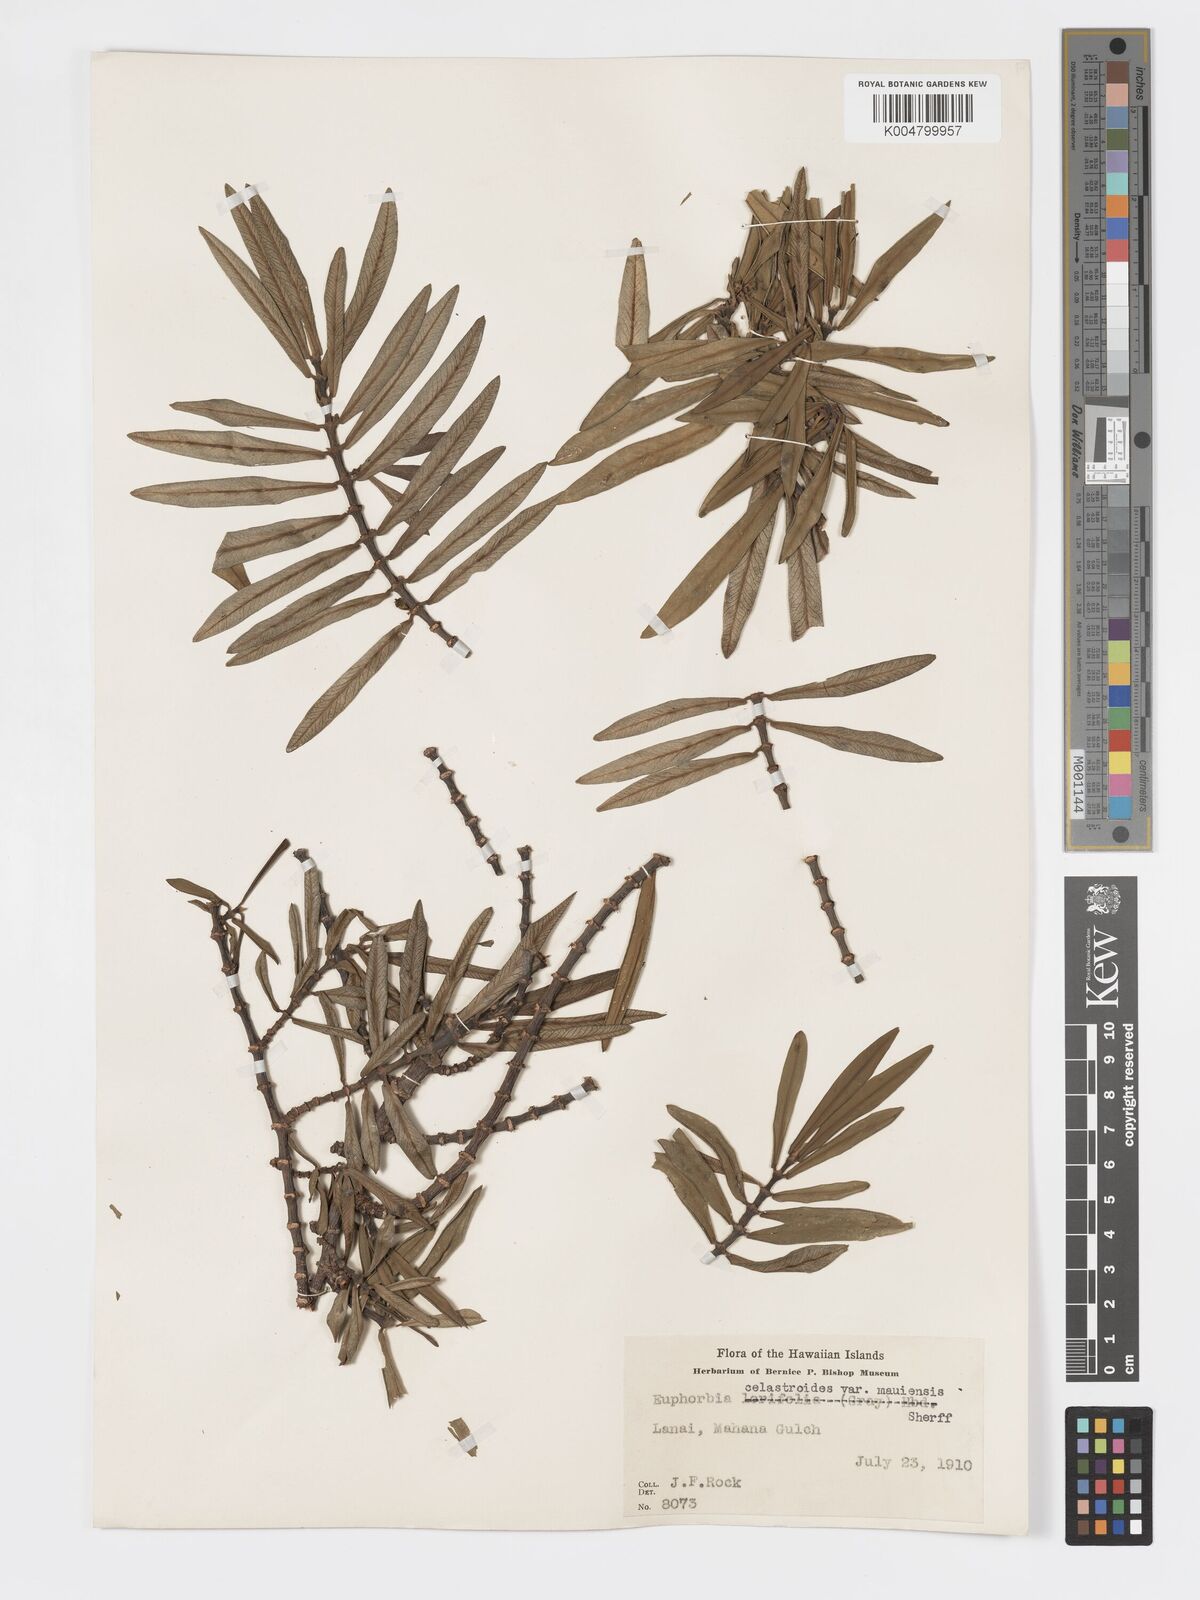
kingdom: Plantae
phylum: Tracheophyta
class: Magnoliopsida
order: Malpighiales
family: Euphorbiaceae
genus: Euphorbia
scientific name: Euphorbia celastroides
